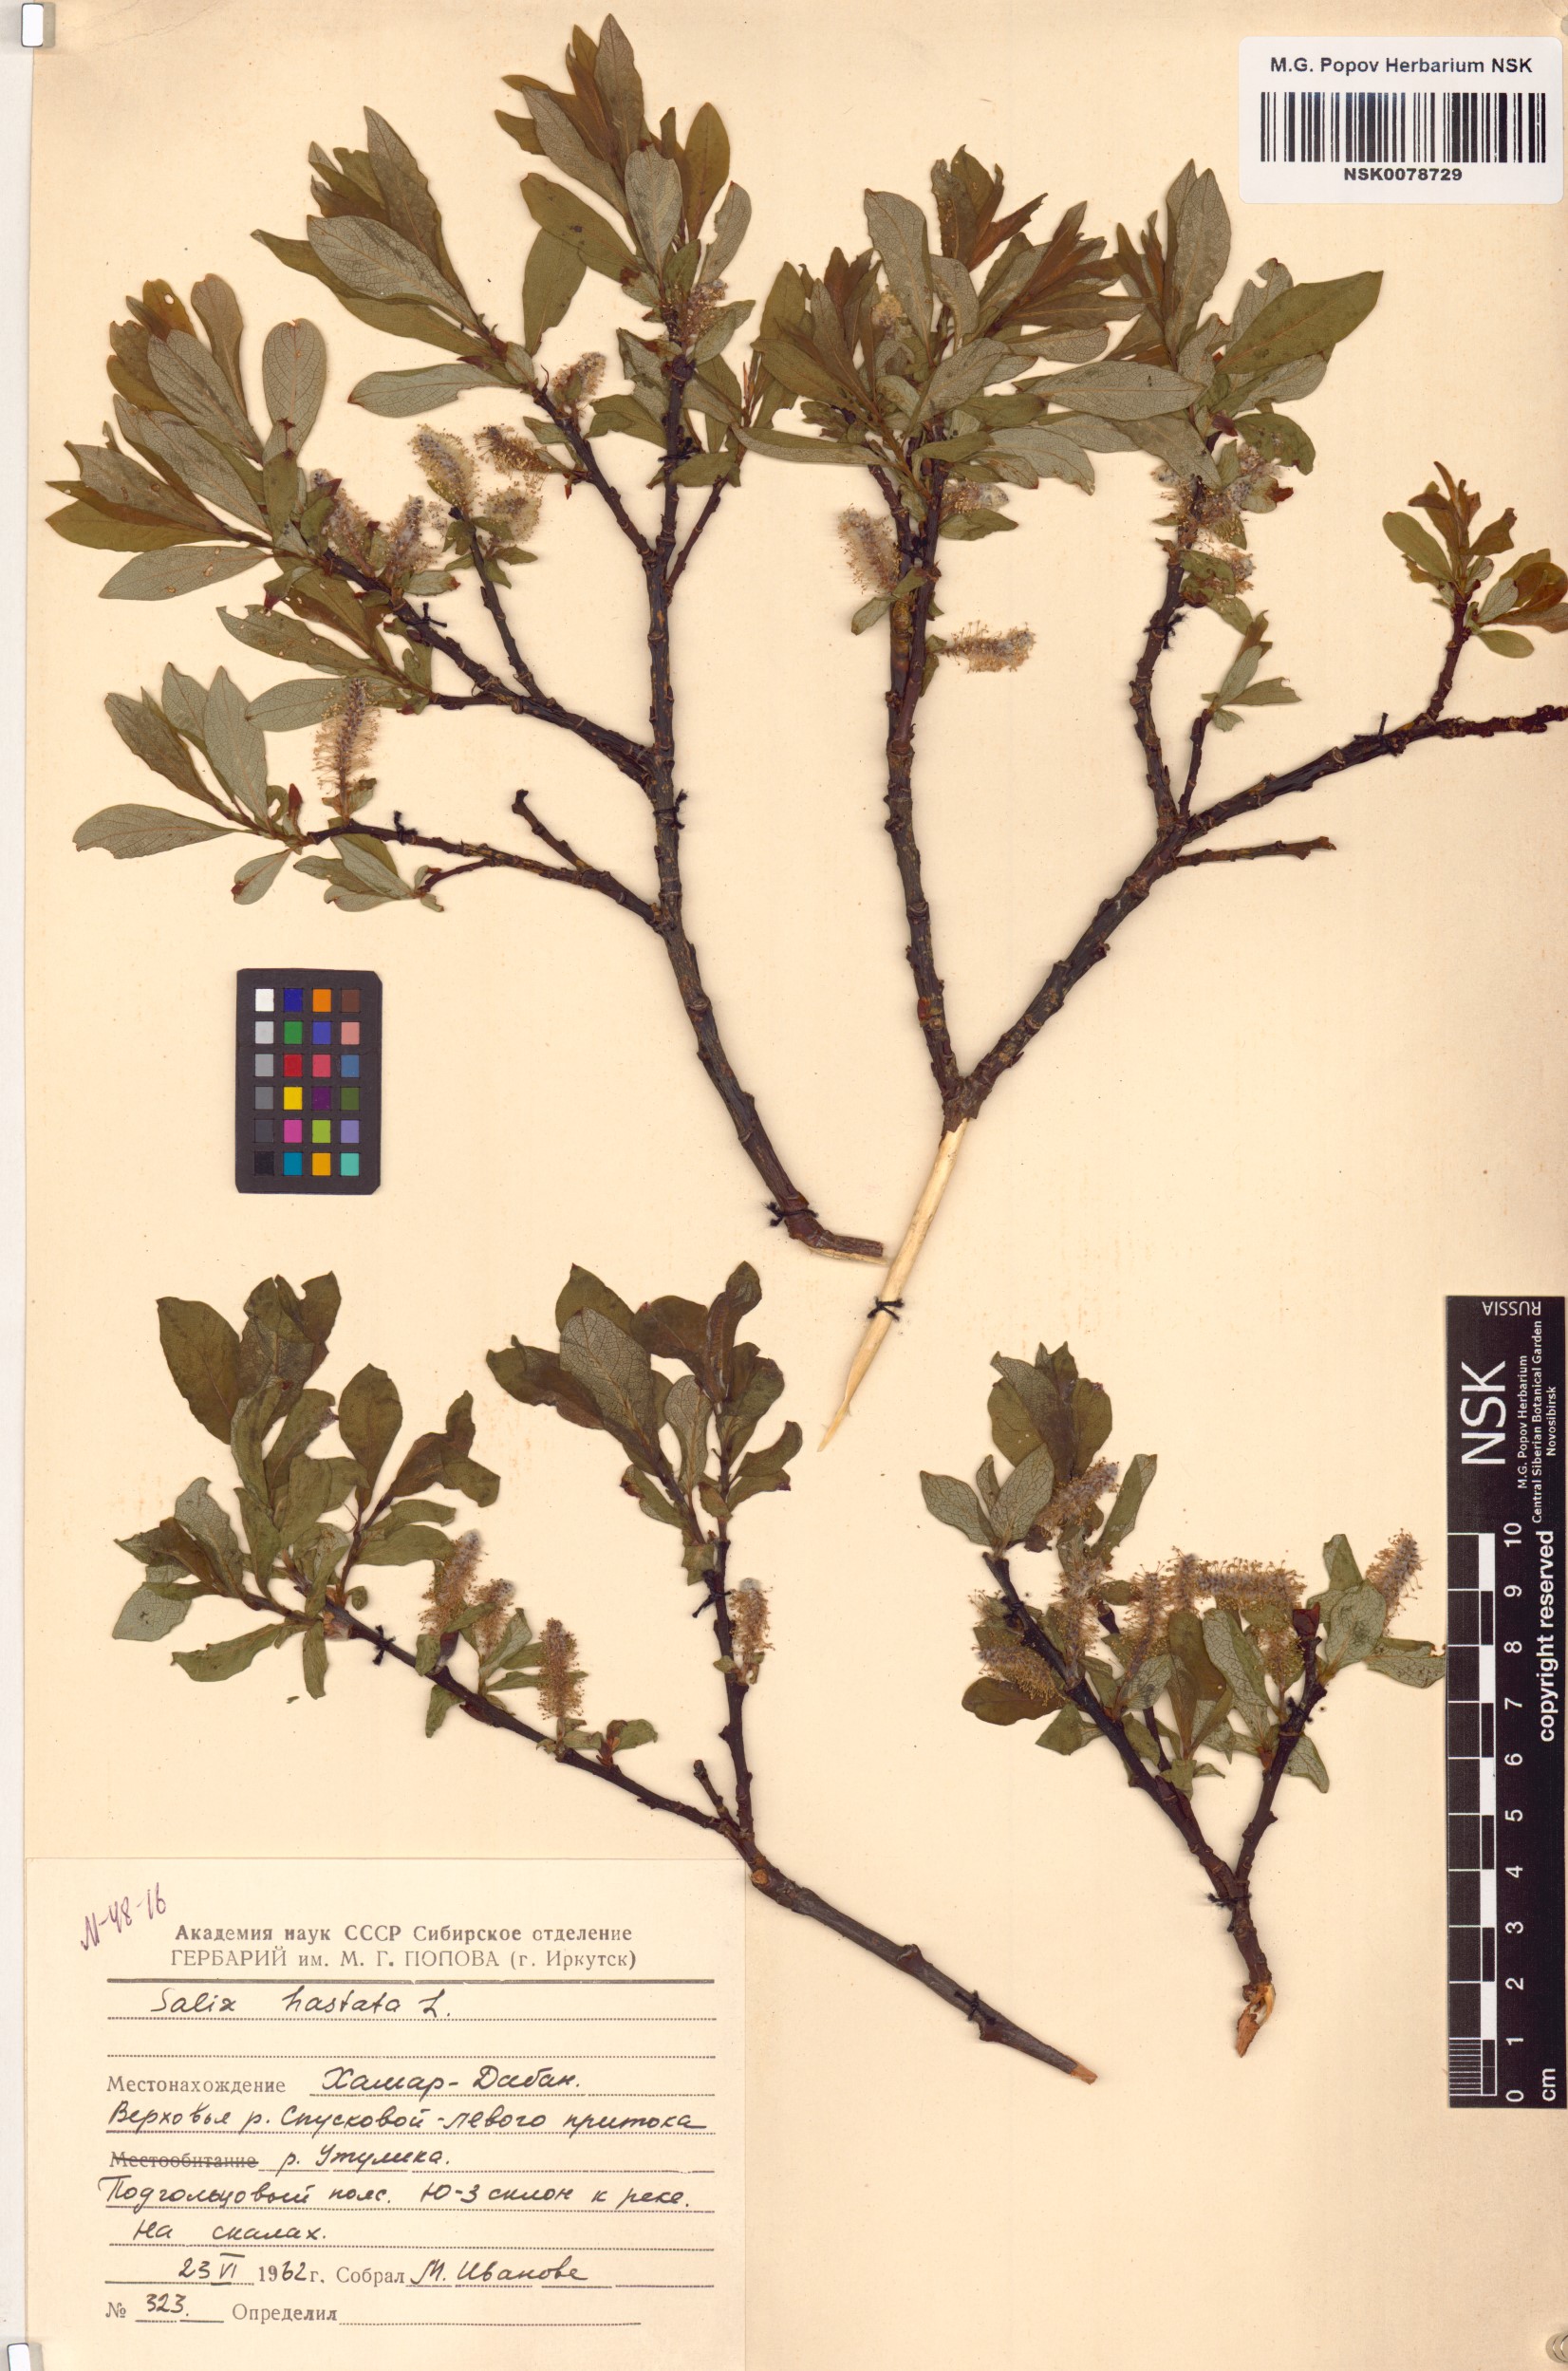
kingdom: Plantae
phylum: Tracheophyta
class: Magnoliopsida
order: Malpighiales
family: Salicaceae
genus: Salix
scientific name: Salix hastata
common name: Halberd willow
